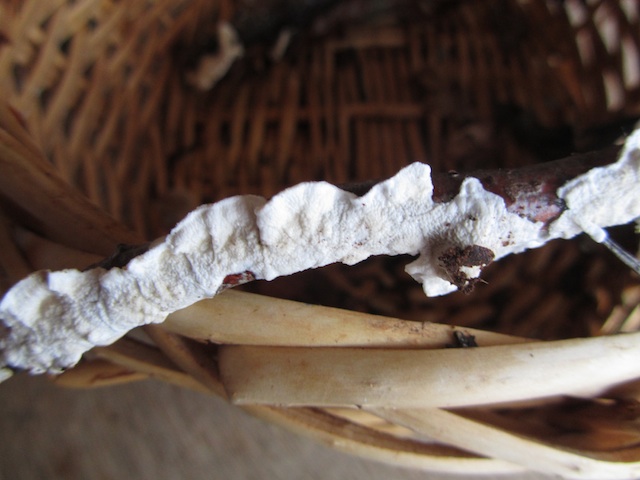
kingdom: Fungi
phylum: Basidiomycota
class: Agaricomycetes
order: Polyporales
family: Irpicaceae
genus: Byssomerulius
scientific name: Byssomerulius corium
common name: læder-åresvamp
